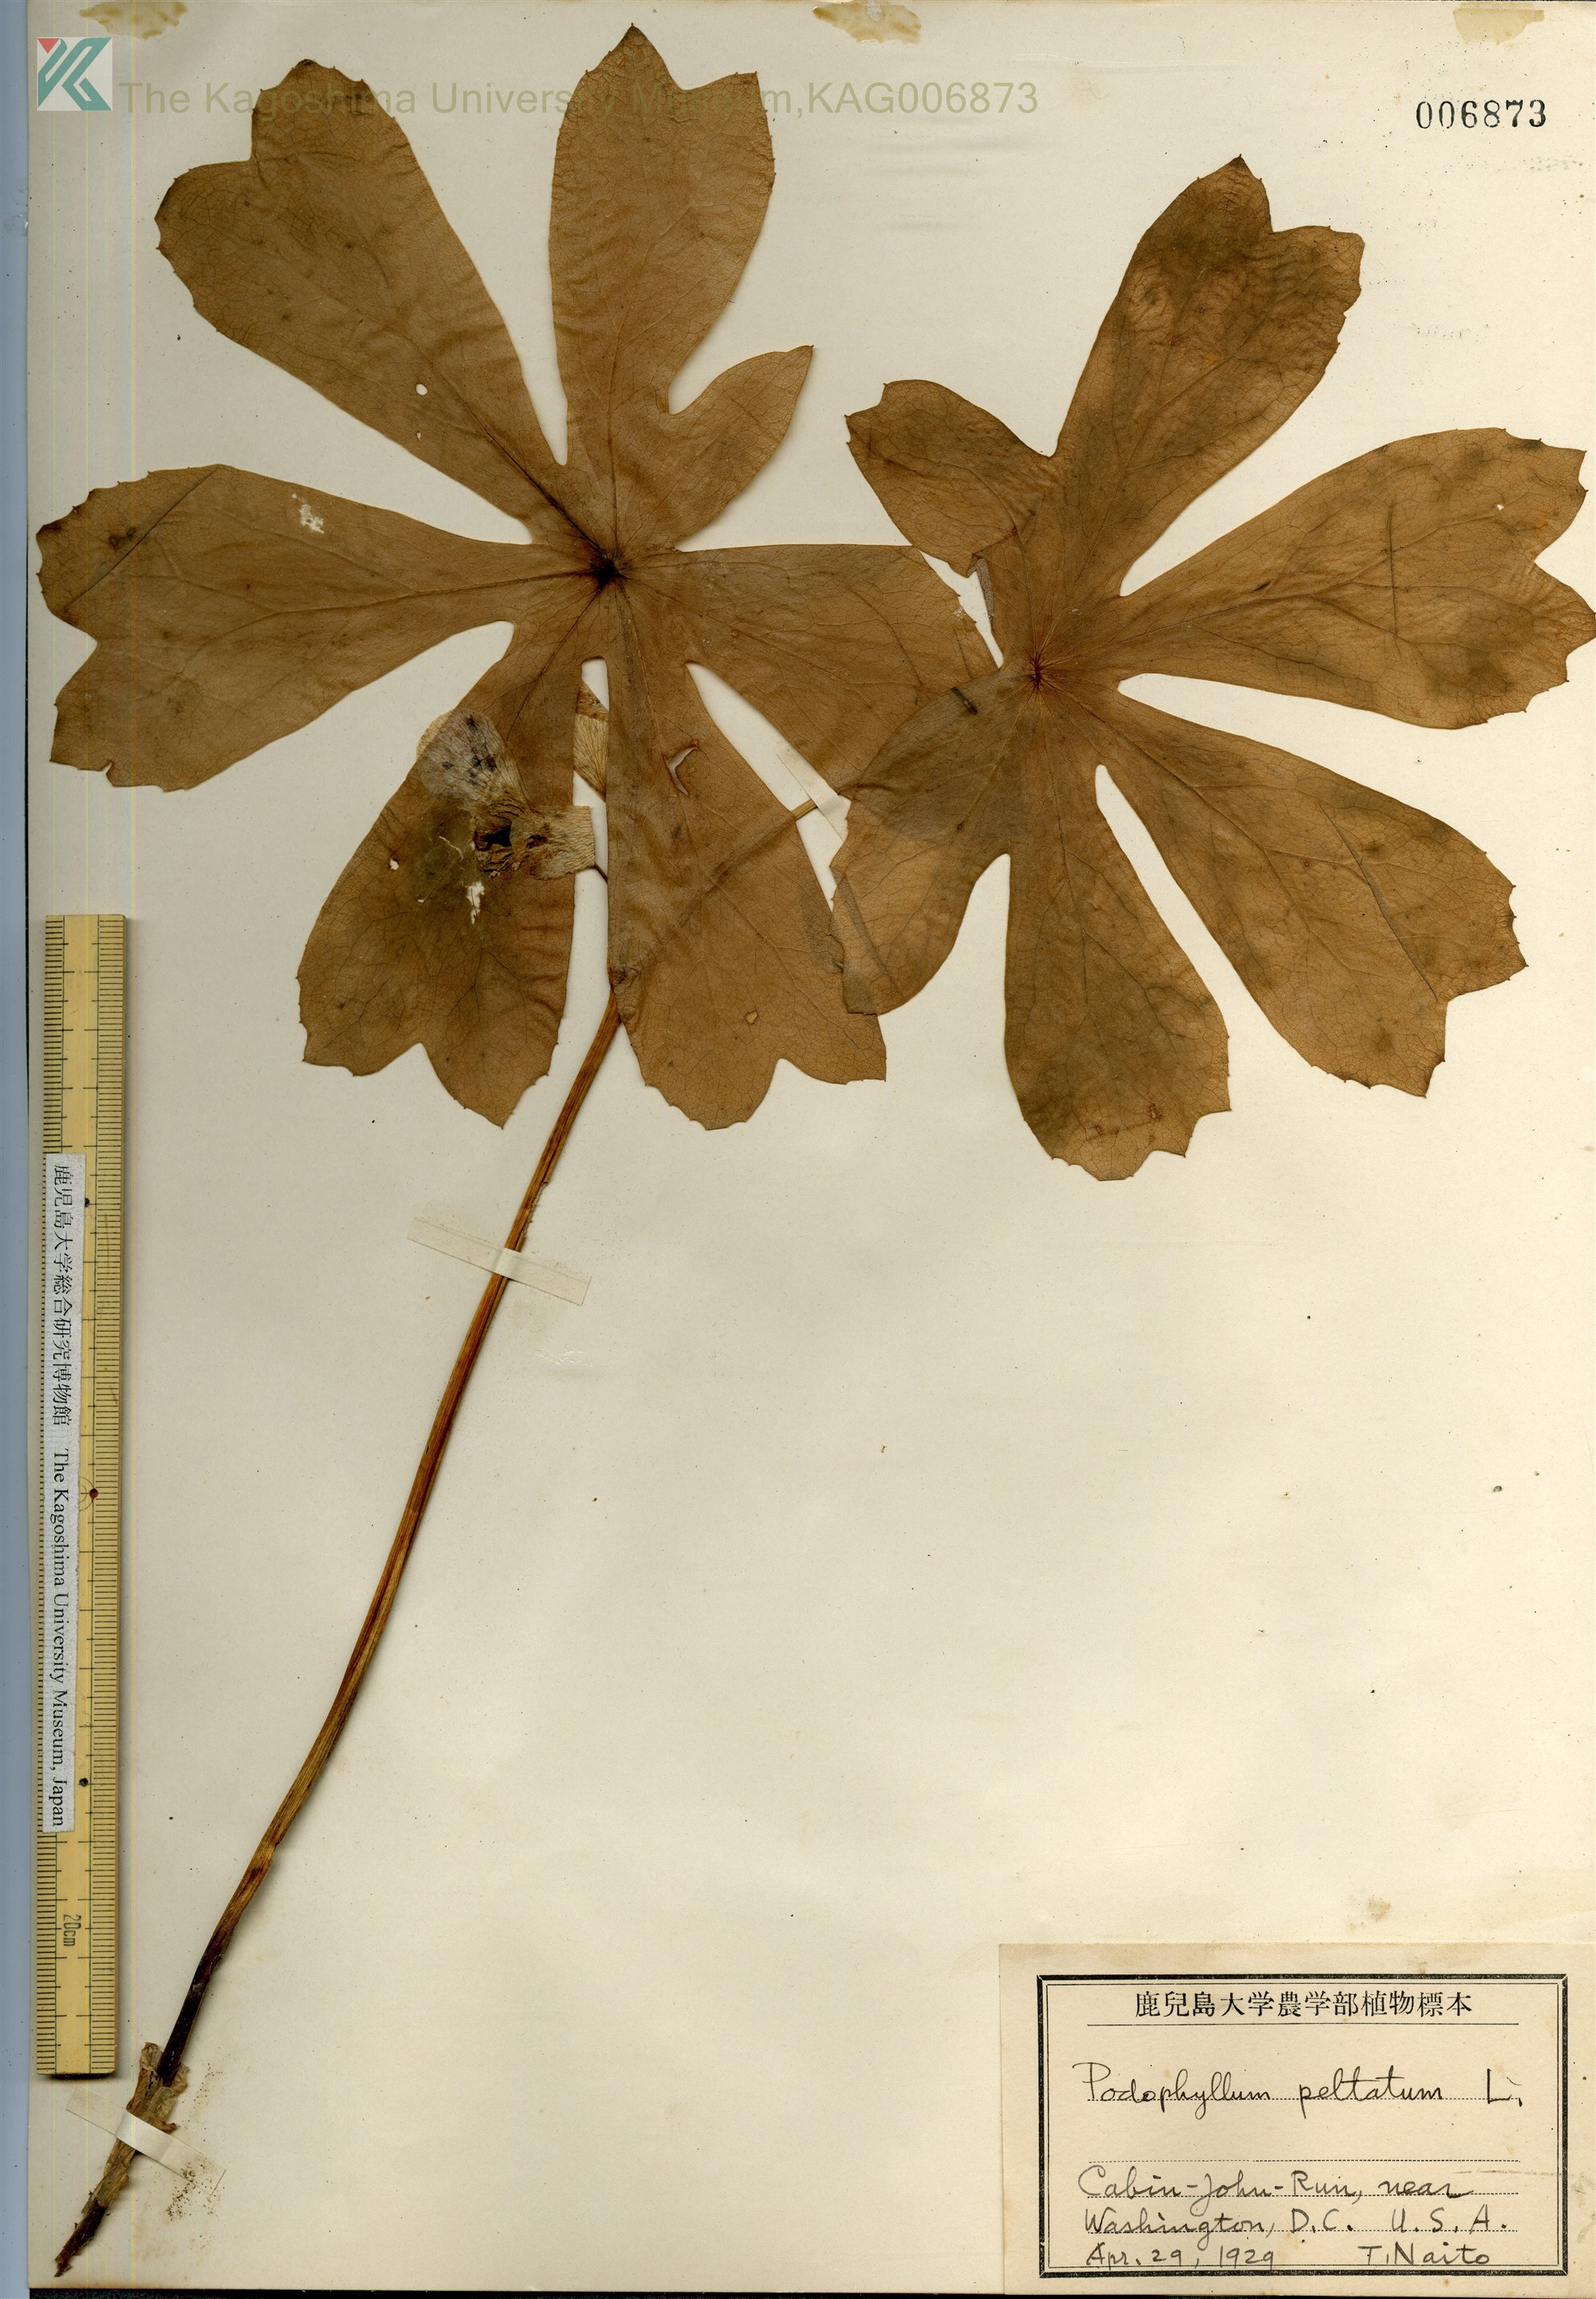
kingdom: Plantae
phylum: Tracheophyta
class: Magnoliopsida
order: Ranunculales
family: Berberidaceae
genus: Podophyllum
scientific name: Podophyllum peltatum
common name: Wild mandrake
